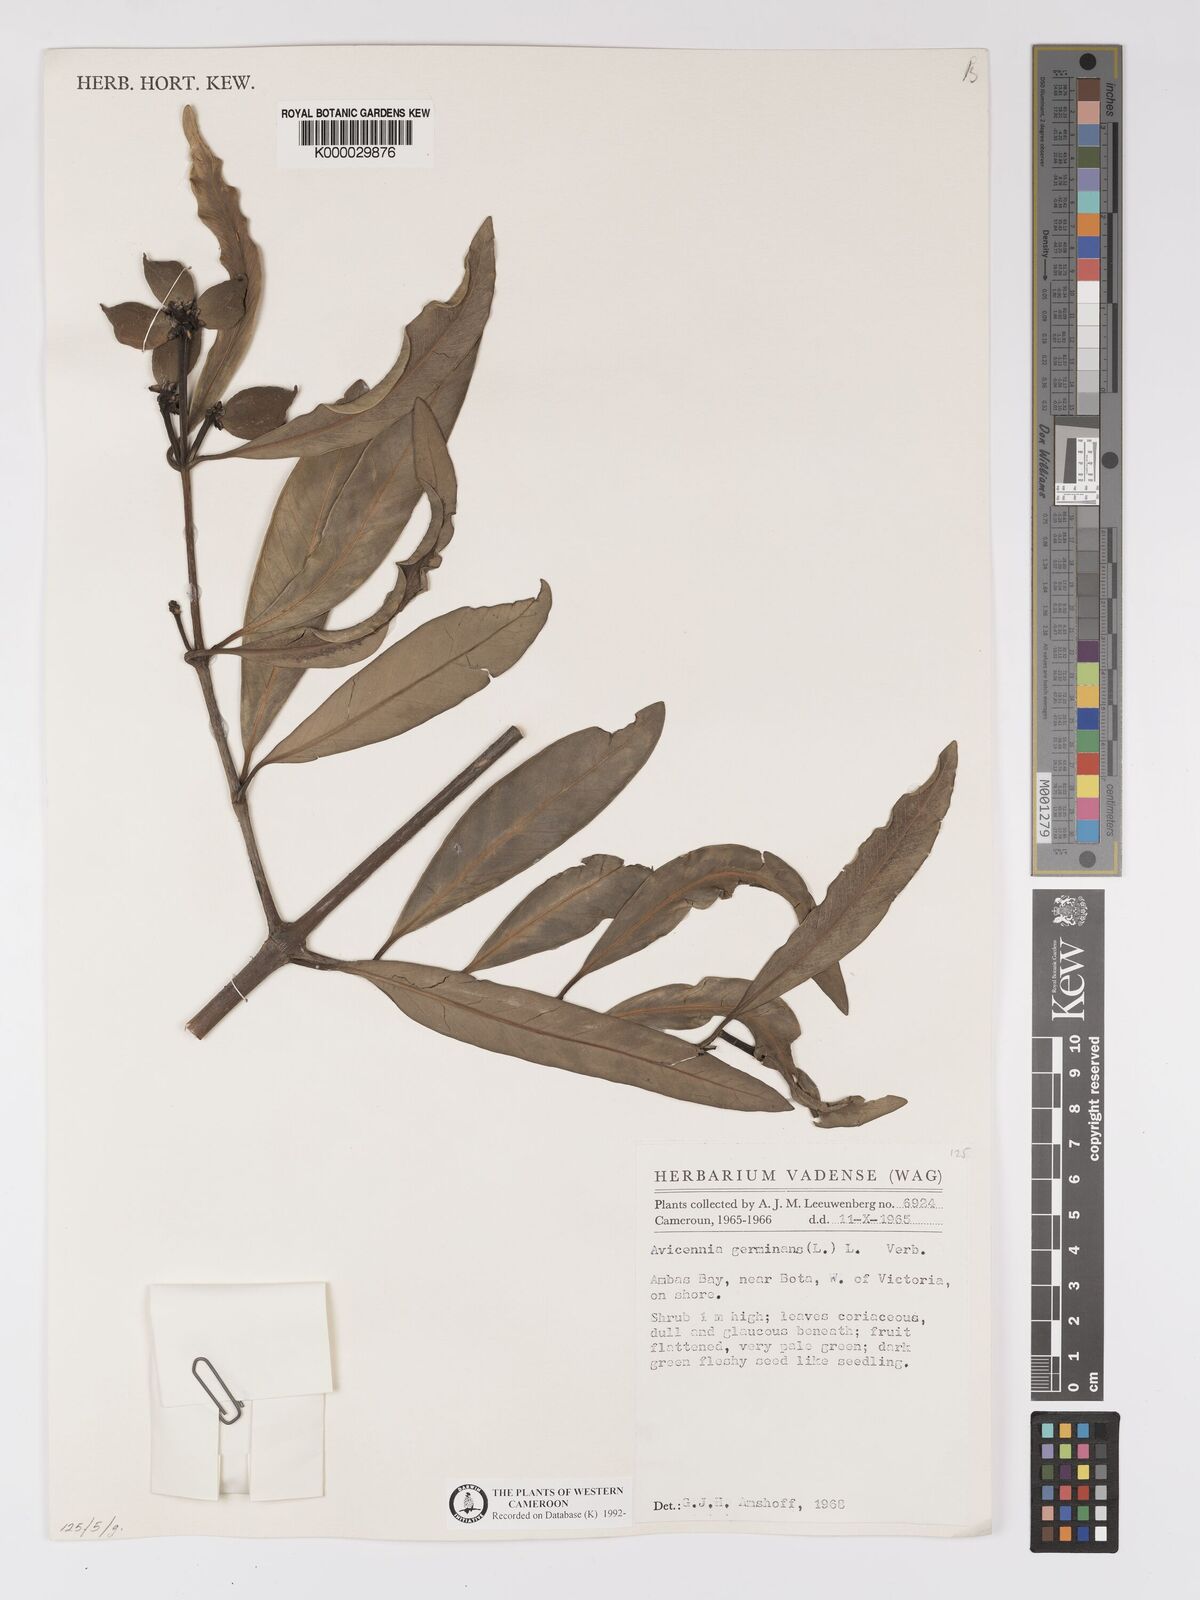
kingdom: Plantae
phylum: Tracheophyta
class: Magnoliopsida
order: Lamiales
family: Acanthaceae
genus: Avicennia
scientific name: Avicennia germinans
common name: Black mangrove
